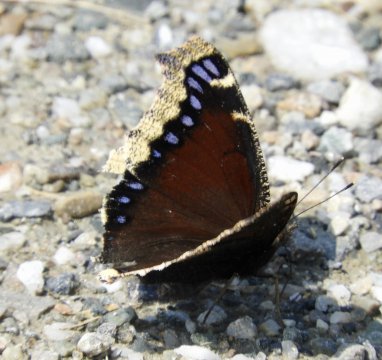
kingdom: Animalia
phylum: Arthropoda
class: Insecta
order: Lepidoptera
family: Nymphalidae
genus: Nymphalis
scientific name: Nymphalis antiopa
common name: Mourning Cloak
